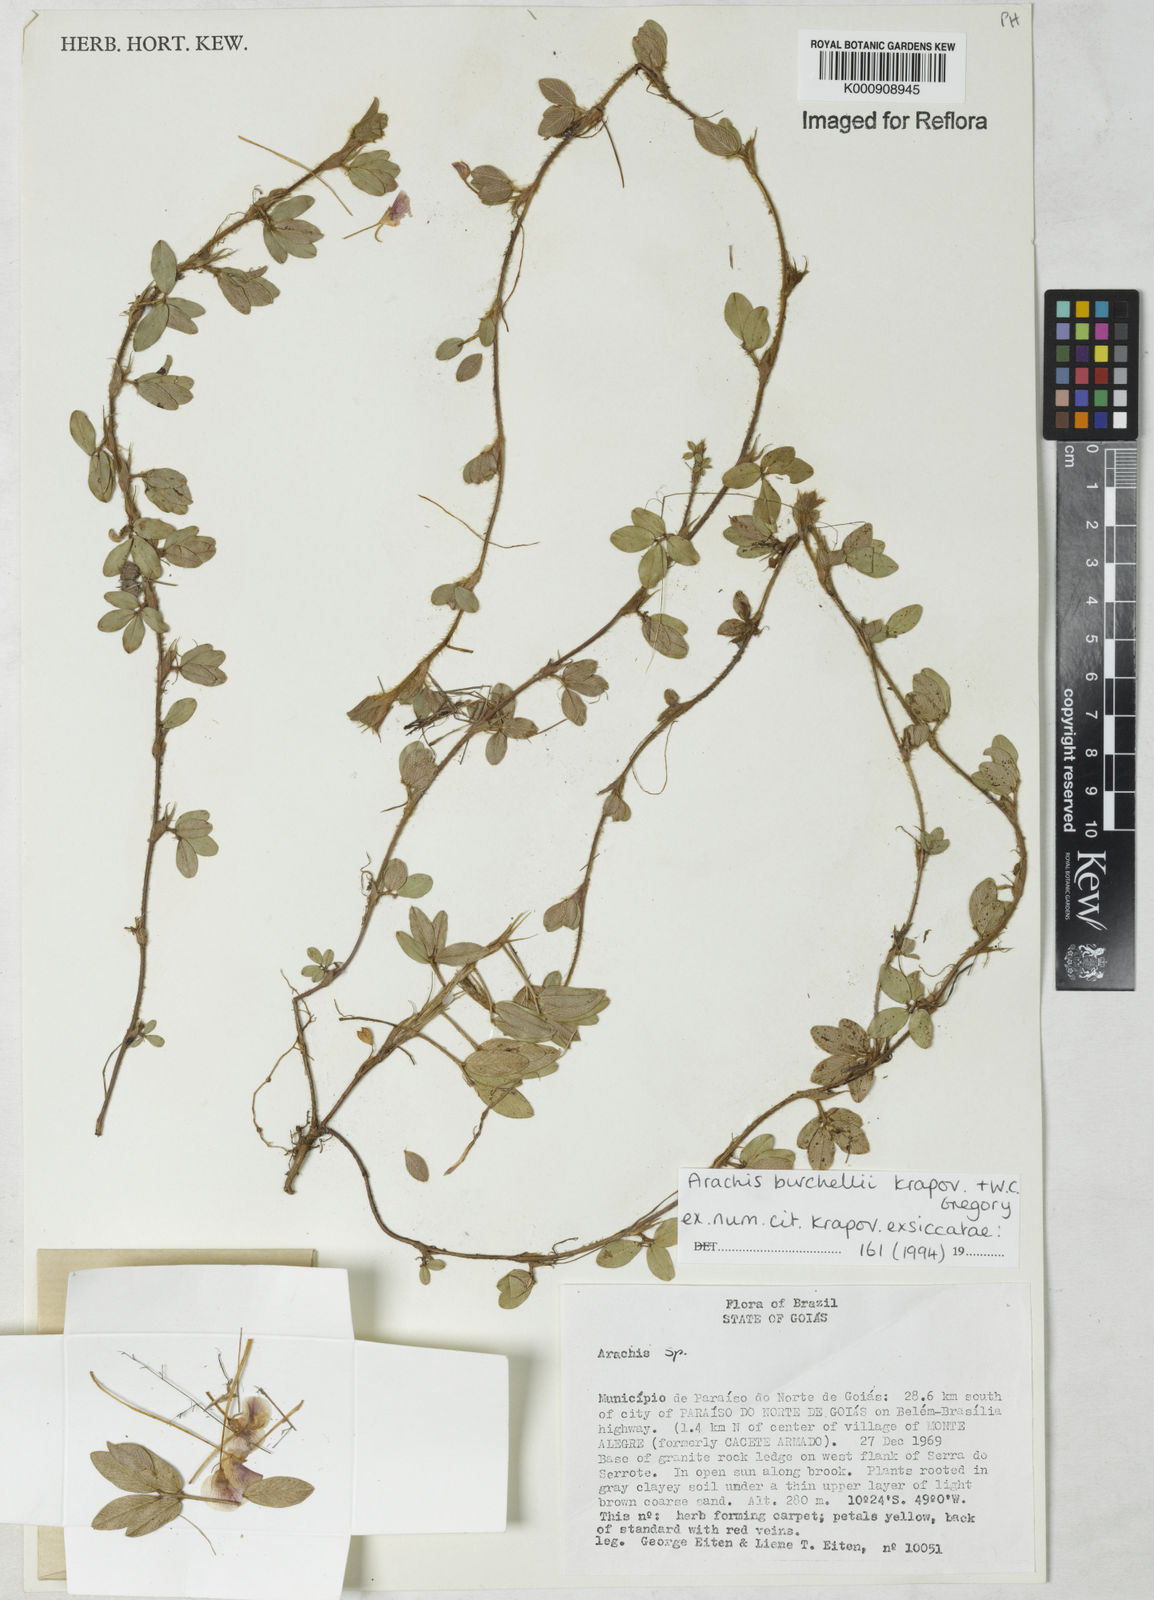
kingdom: Plantae
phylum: Tracheophyta
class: Magnoliopsida
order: Fabales
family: Fabaceae
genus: Arachis
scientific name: Arachis burchellii
